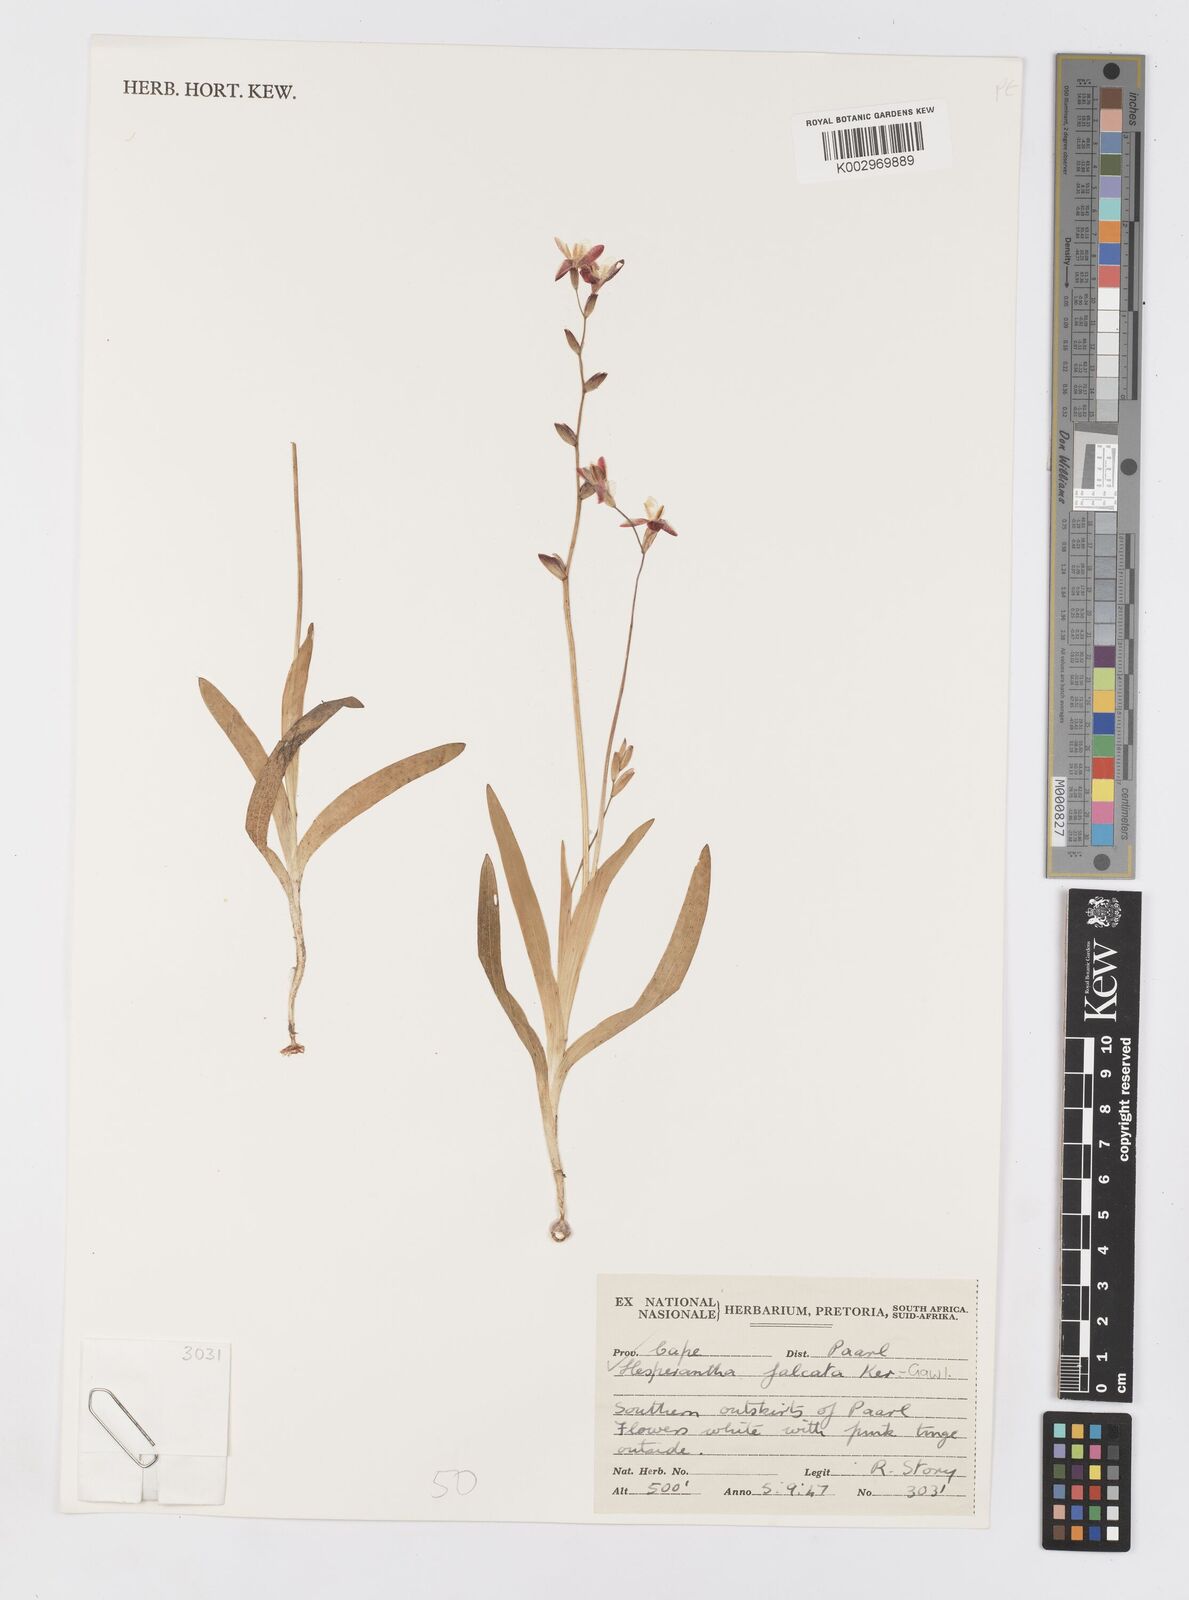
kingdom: Plantae
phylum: Tracheophyta
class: Liliopsida
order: Asparagales
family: Iridaceae
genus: Hesperantha
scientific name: Hesperantha falcata
